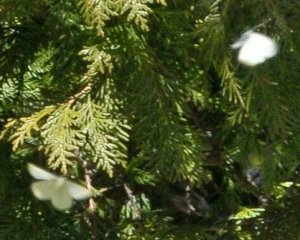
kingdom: Animalia
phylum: Arthropoda
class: Insecta
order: Lepidoptera
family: Pieridae
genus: Pieris
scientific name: Pieris rapae
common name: Cabbage White
